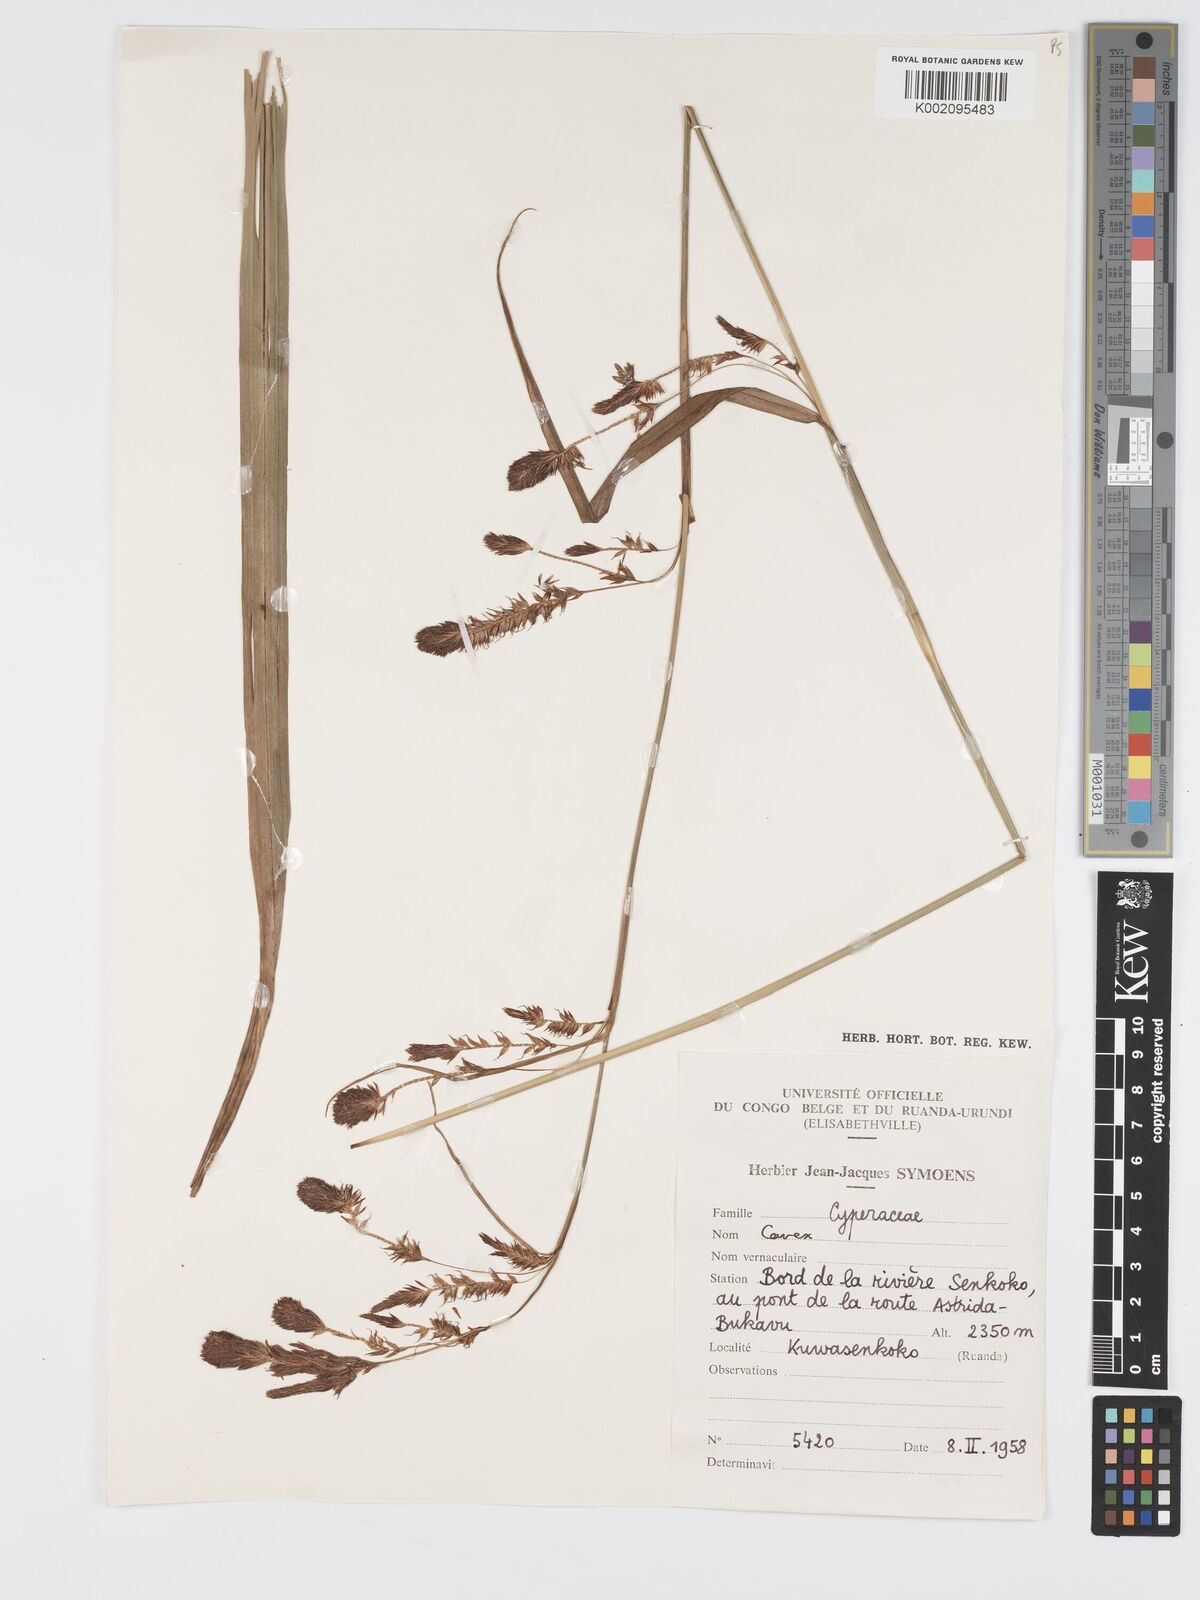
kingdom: Plantae
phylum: Tracheophyta
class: Liliopsida
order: Poales
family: Cyperaceae
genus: Carex
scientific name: Carex
